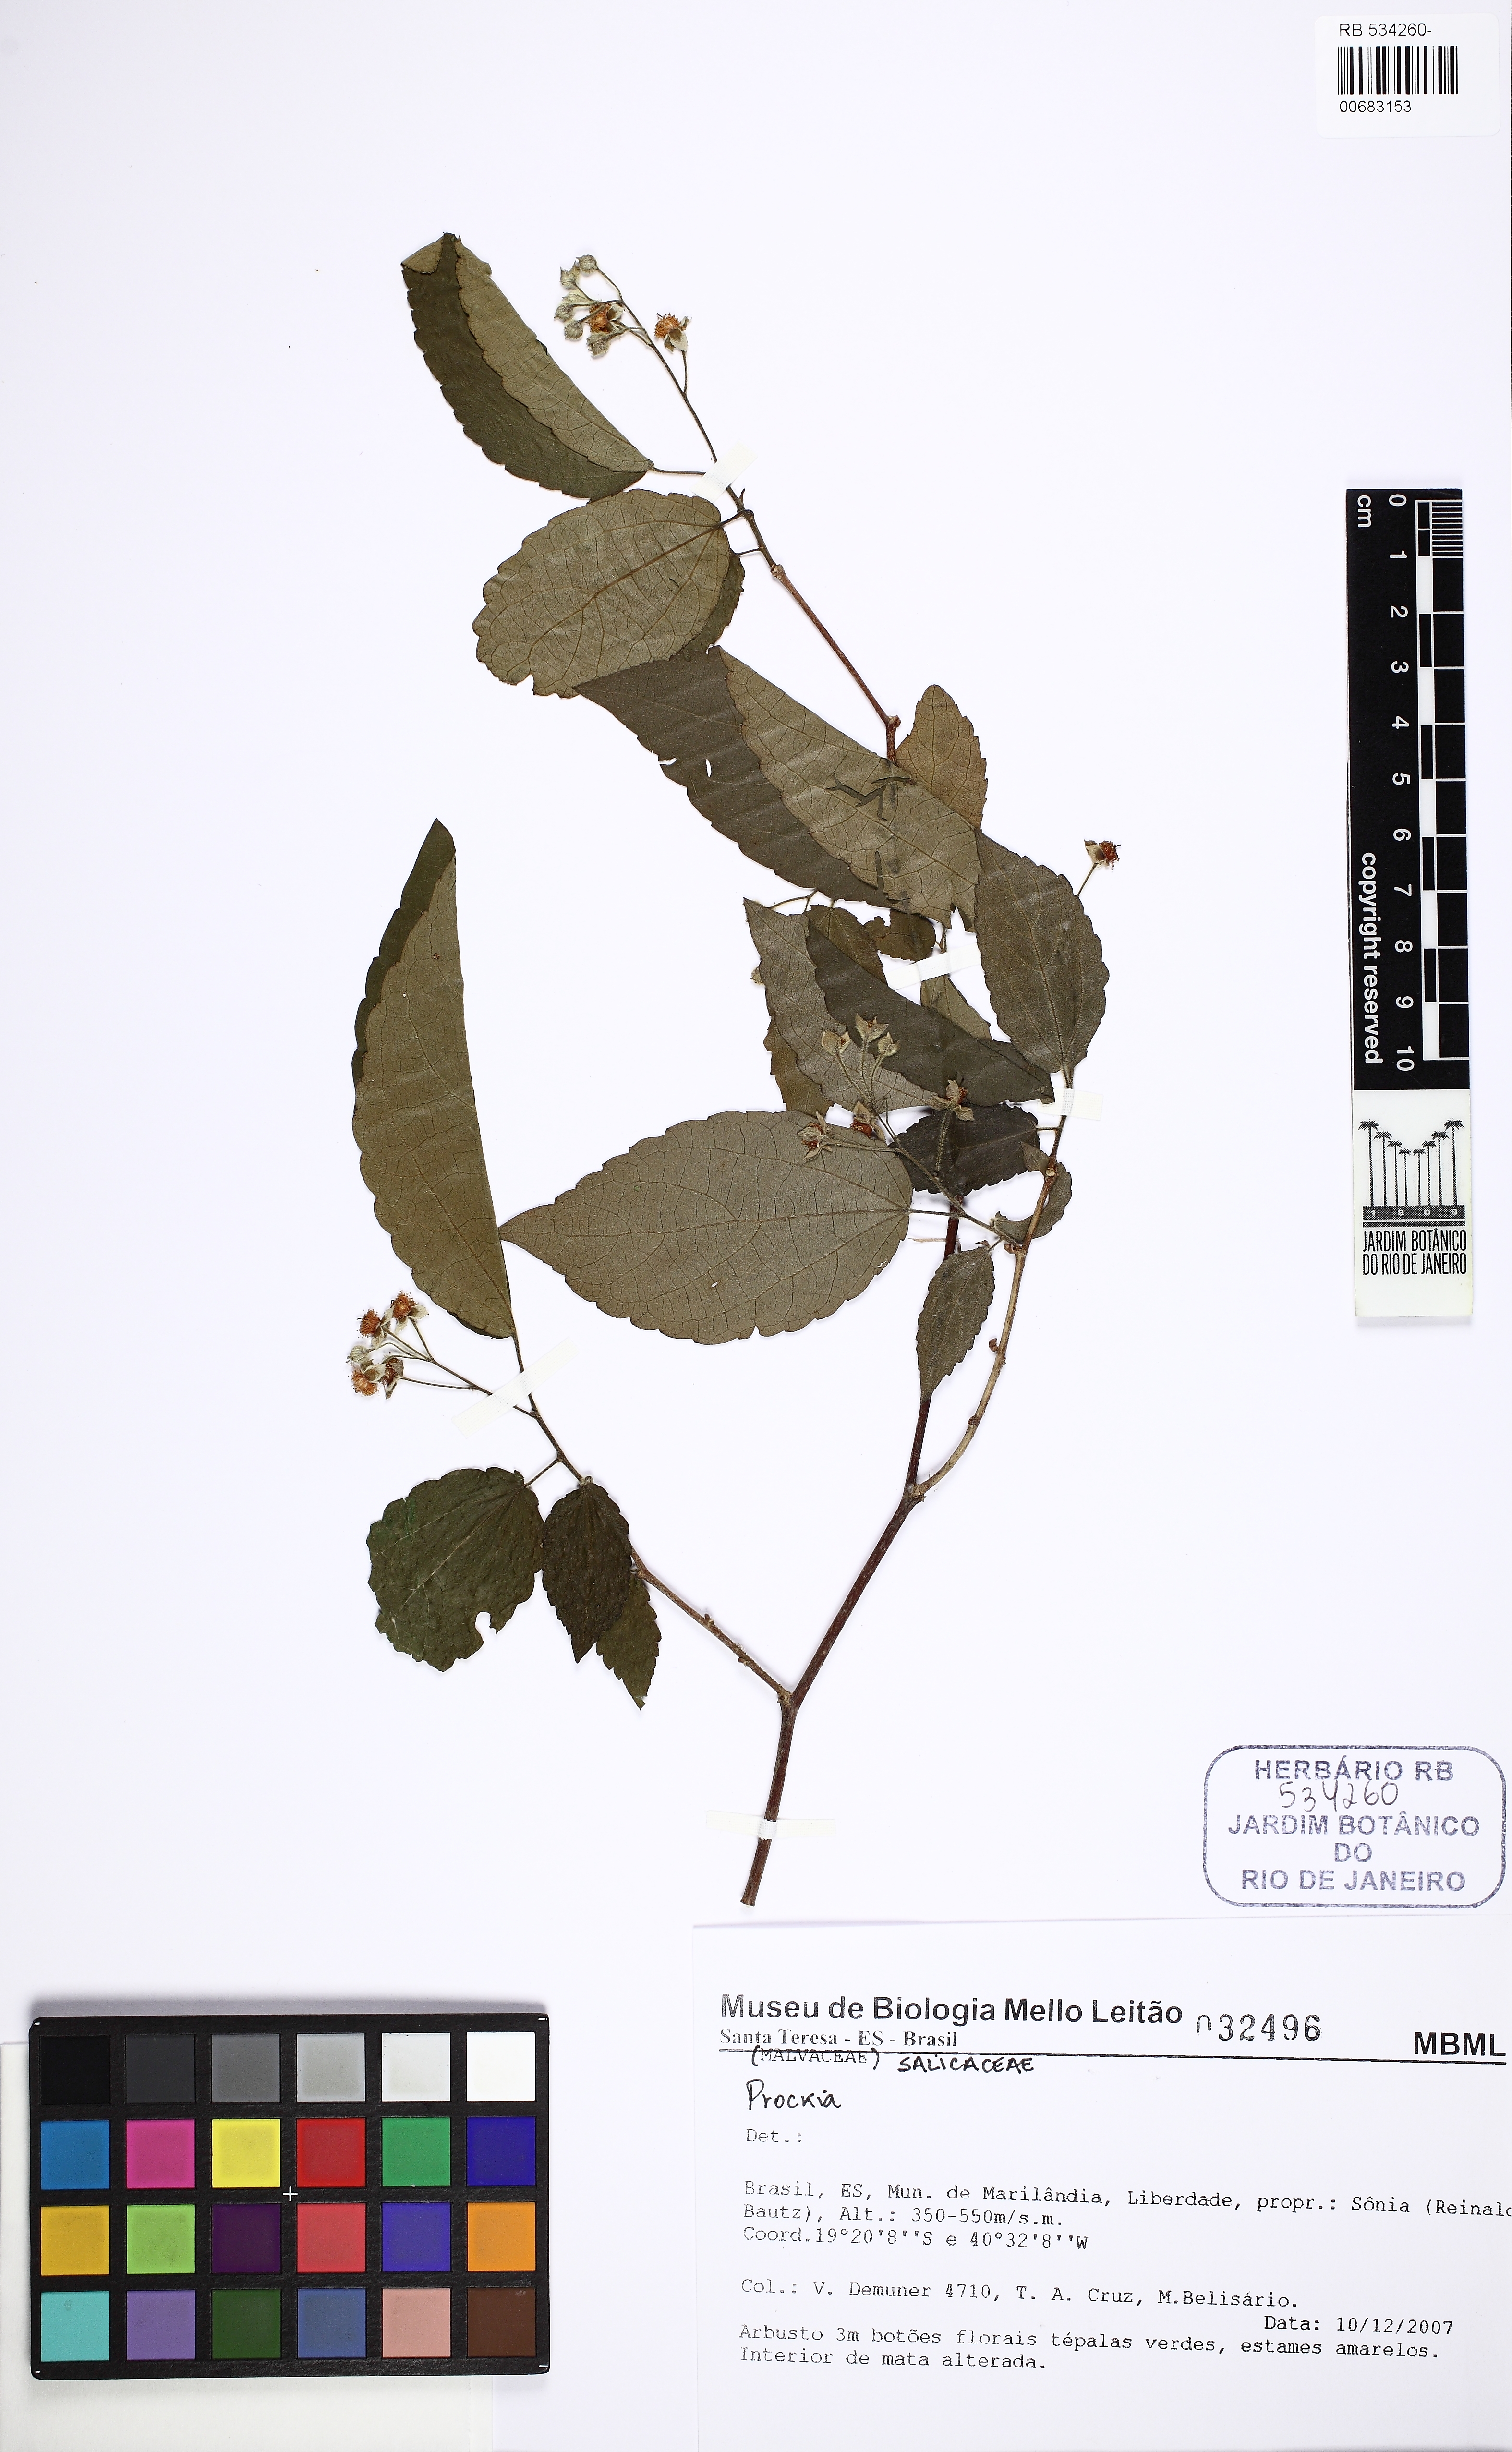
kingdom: Plantae
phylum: Tracheophyta
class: Magnoliopsida
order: Malpighiales
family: Salicaceae
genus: Prockia
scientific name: Prockia crucis
